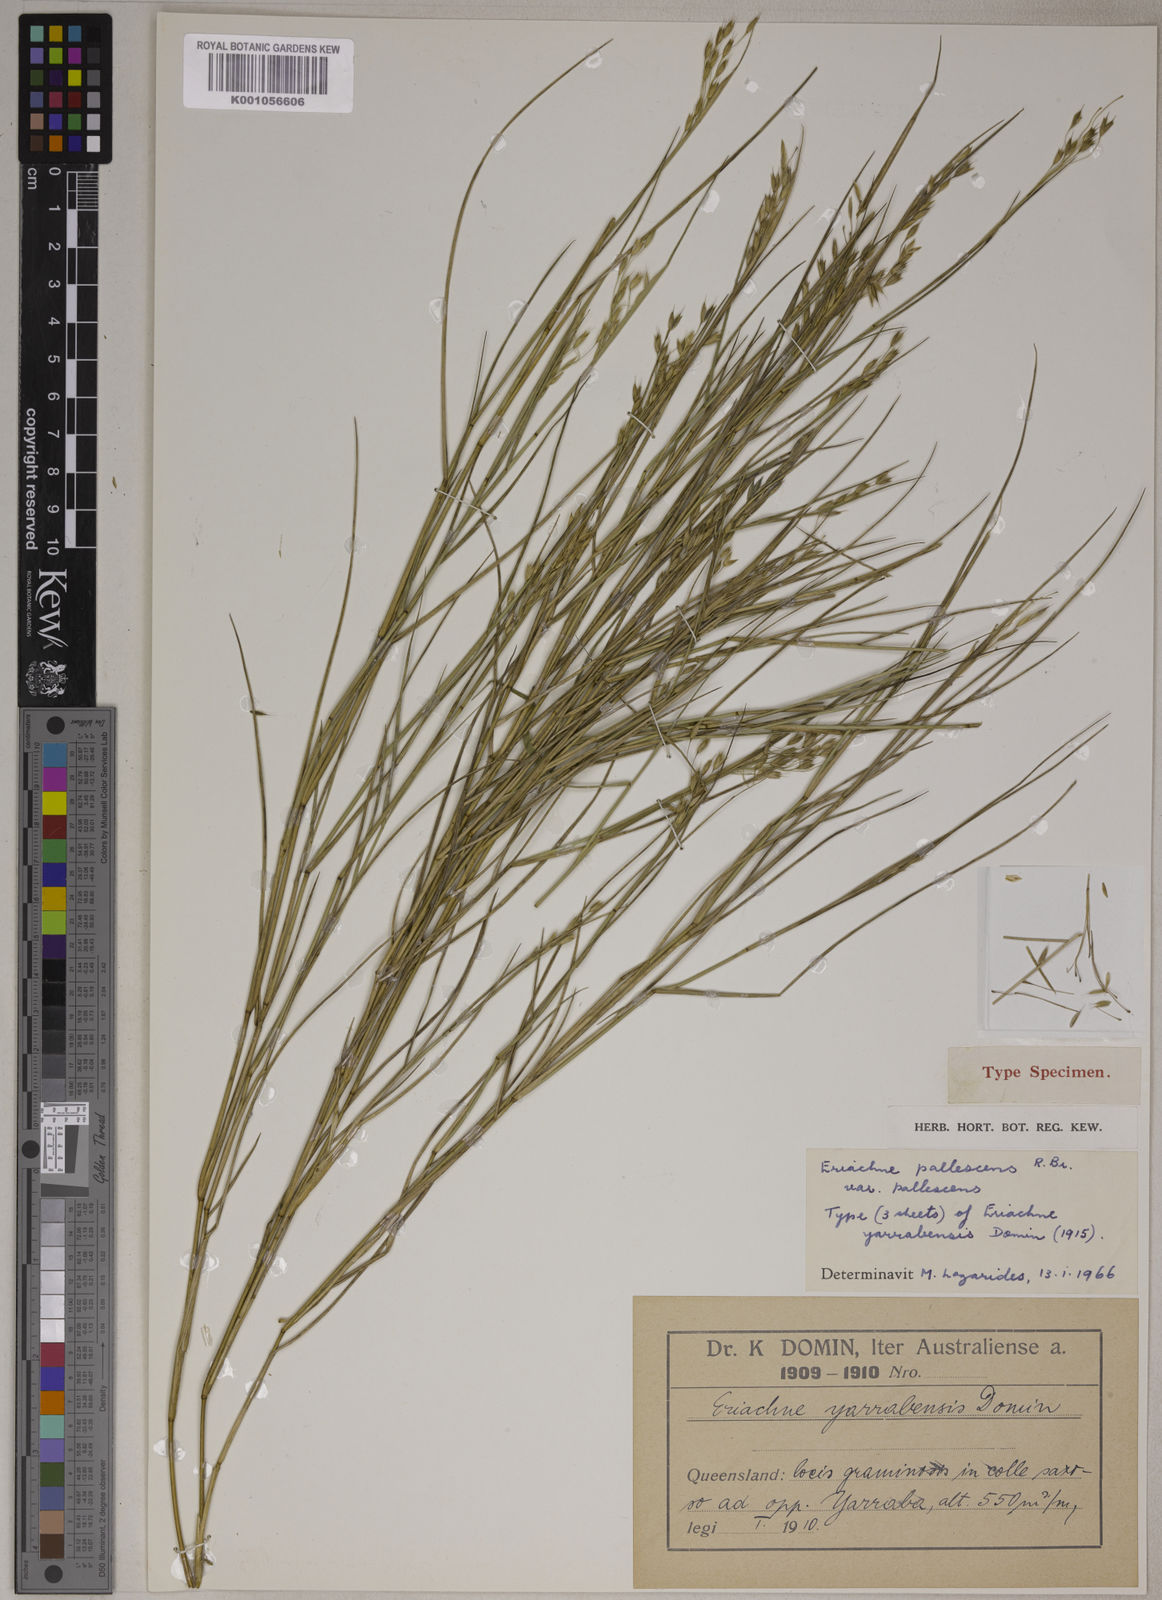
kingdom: Plantae
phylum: Tracheophyta
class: Liliopsida
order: Poales
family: Poaceae
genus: Eriachne
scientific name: Eriachne pallescens
